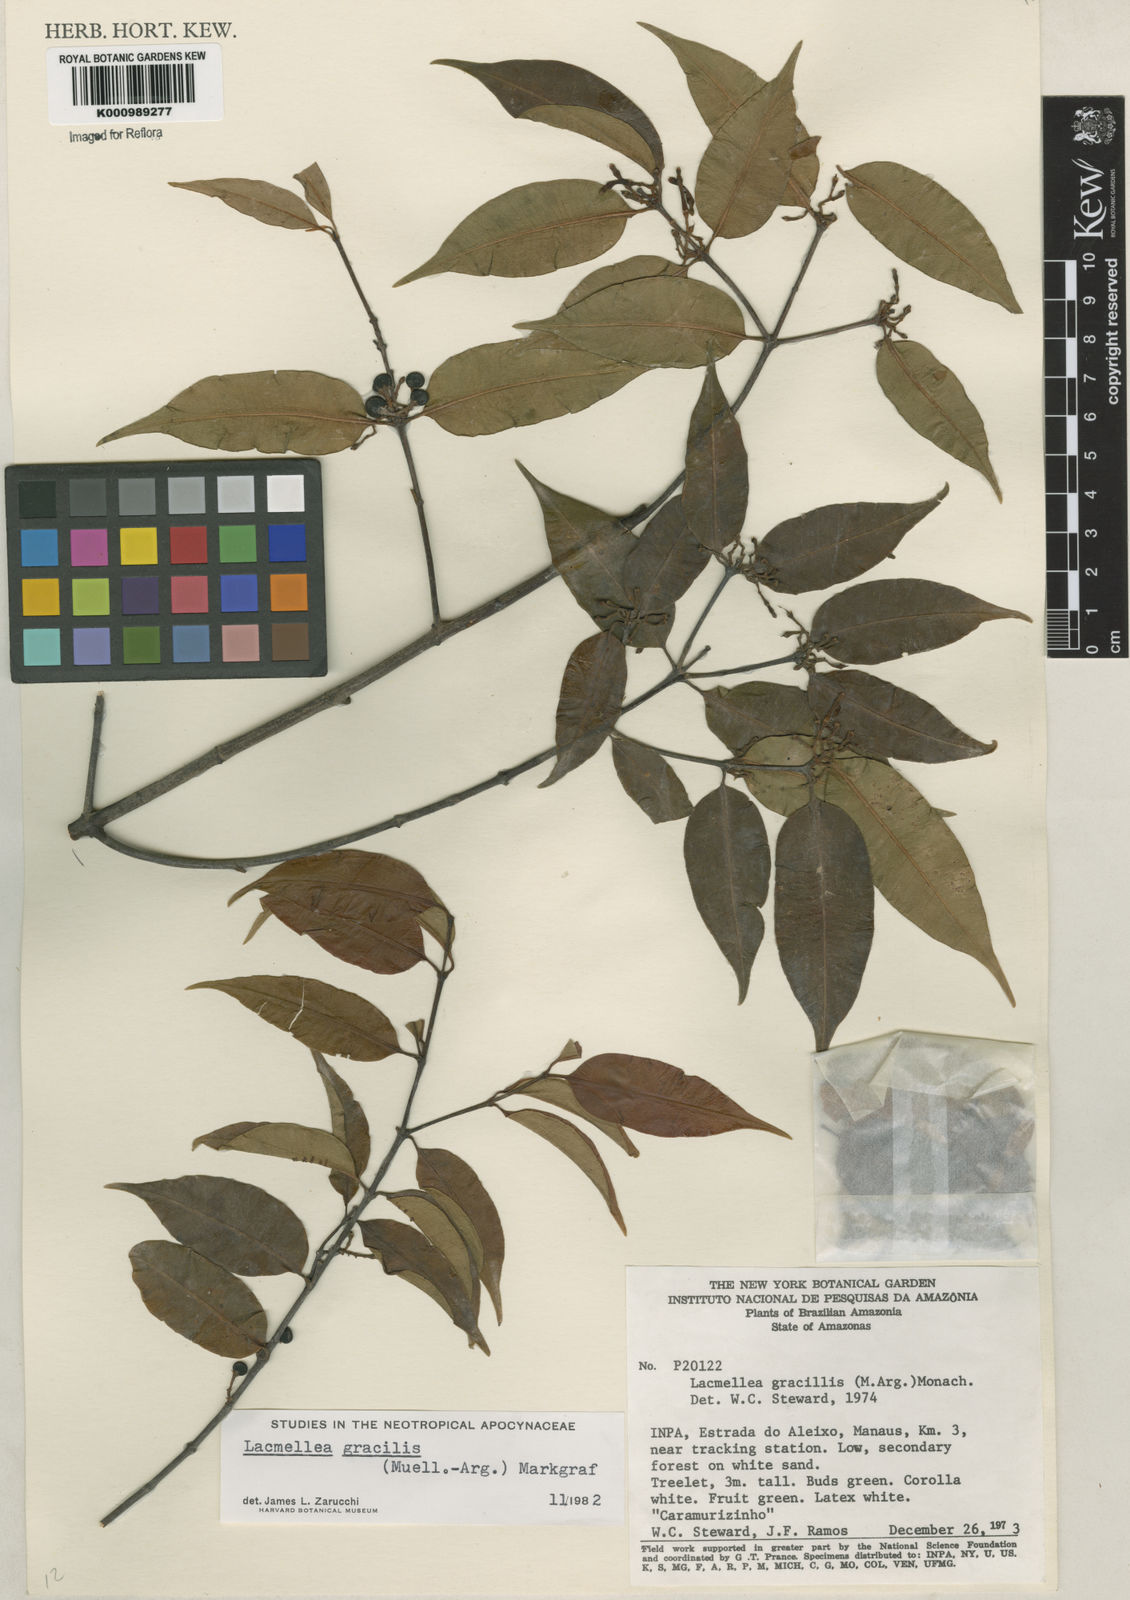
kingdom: Plantae
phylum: Tracheophyta
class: Magnoliopsida
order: Gentianales
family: Apocynaceae
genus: Lacmellea
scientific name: Lacmellea
